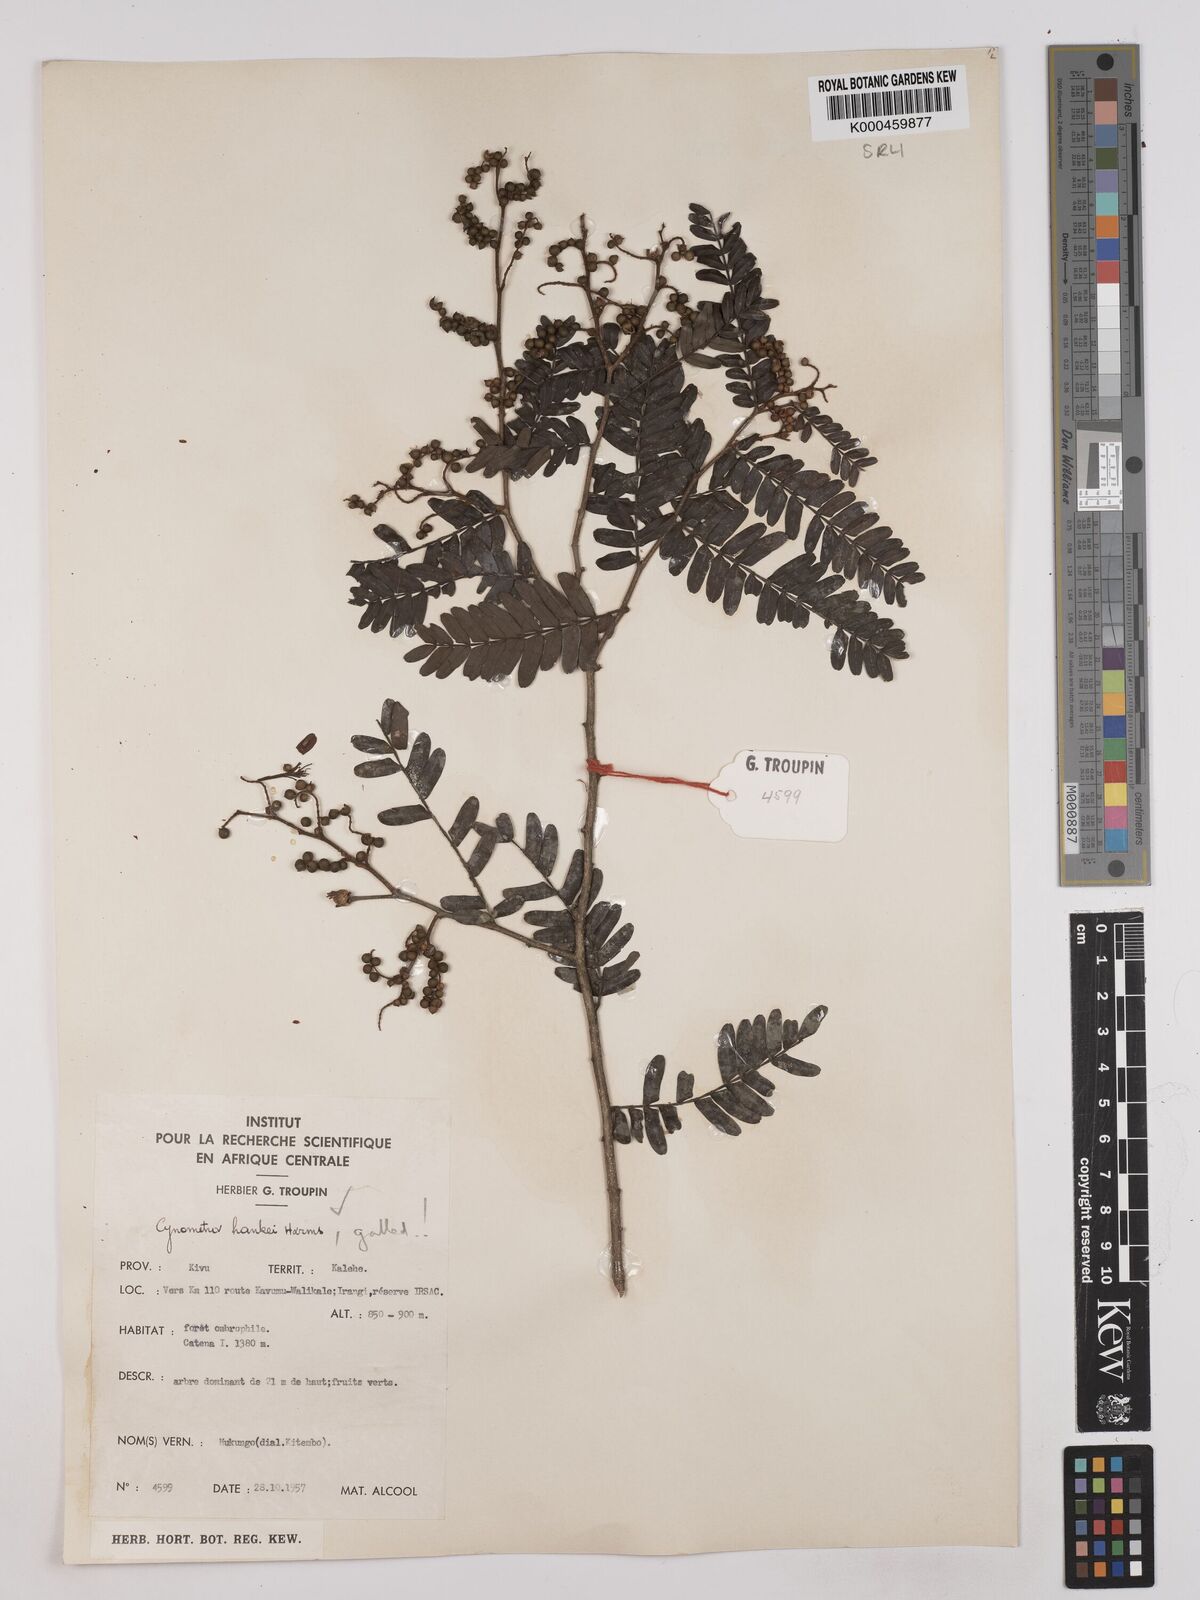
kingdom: Plantae
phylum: Tracheophyta
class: Magnoliopsida
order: Fabales
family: Fabaceae
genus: Cynometra
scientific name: Cynometra hankei
